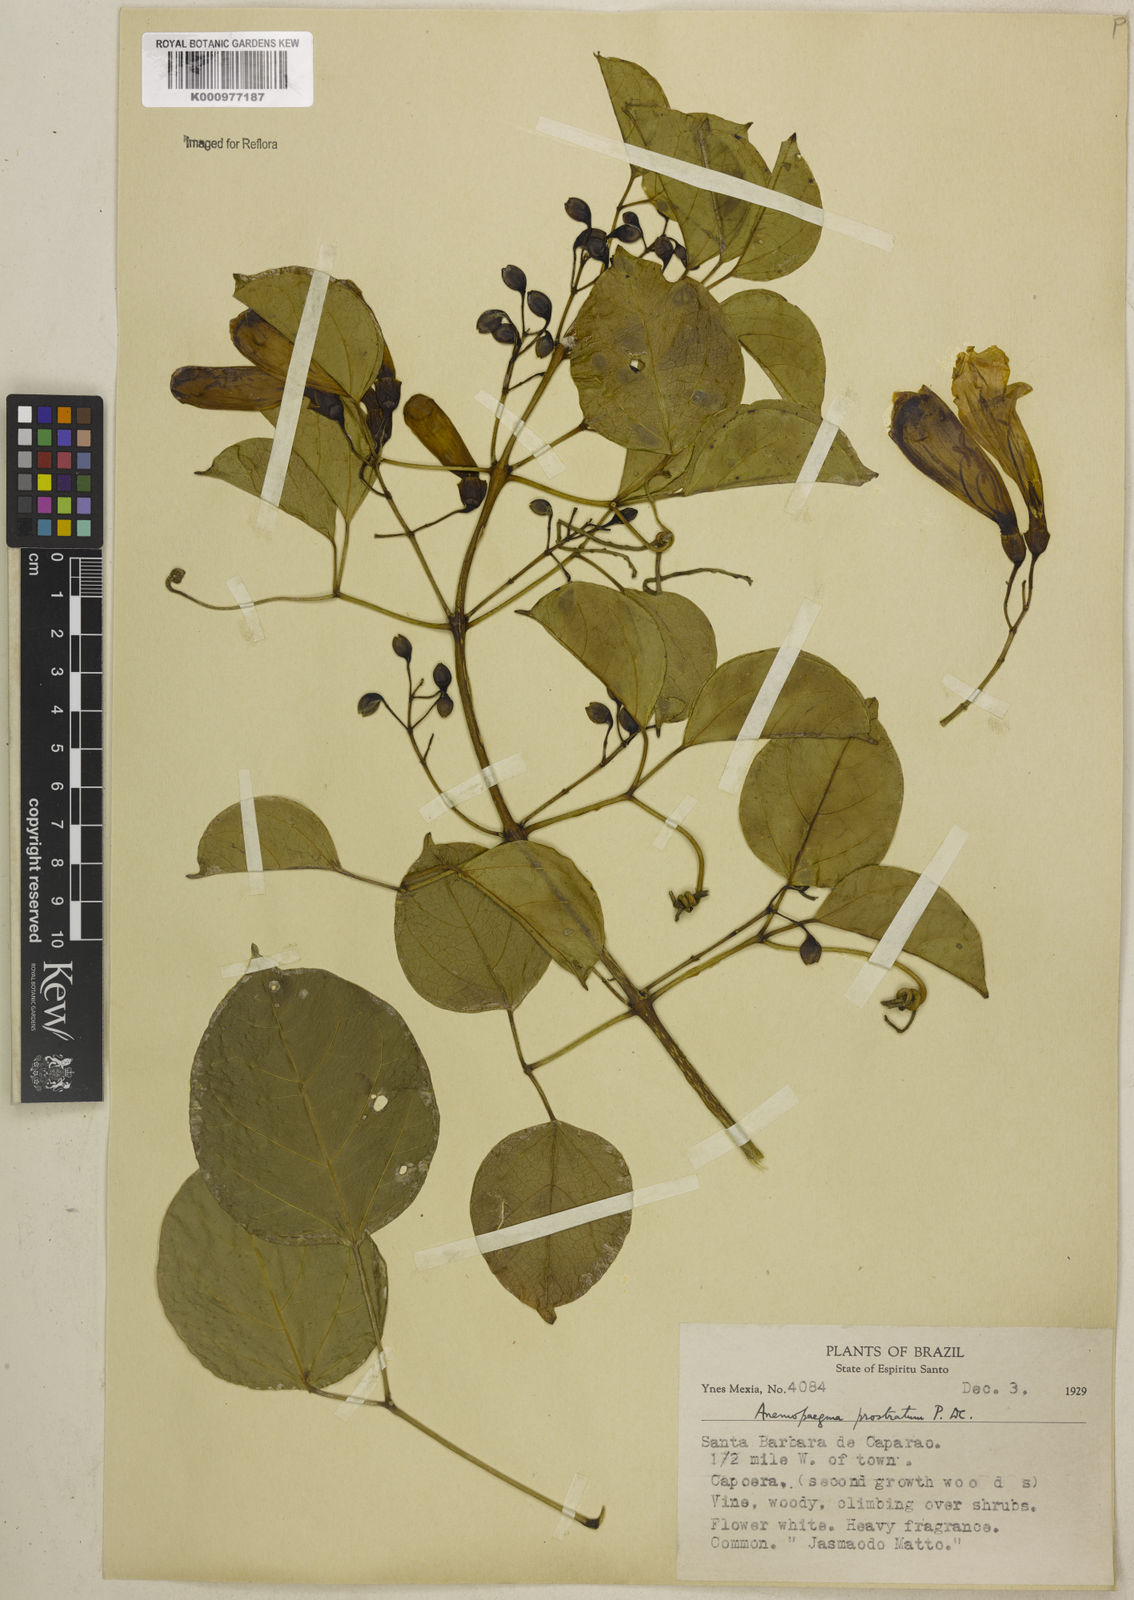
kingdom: Plantae
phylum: Tracheophyta
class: Magnoliopsida
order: Lamiales
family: Bignoniaceae
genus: Anemopaegma
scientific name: Anemopaegma prostratum
